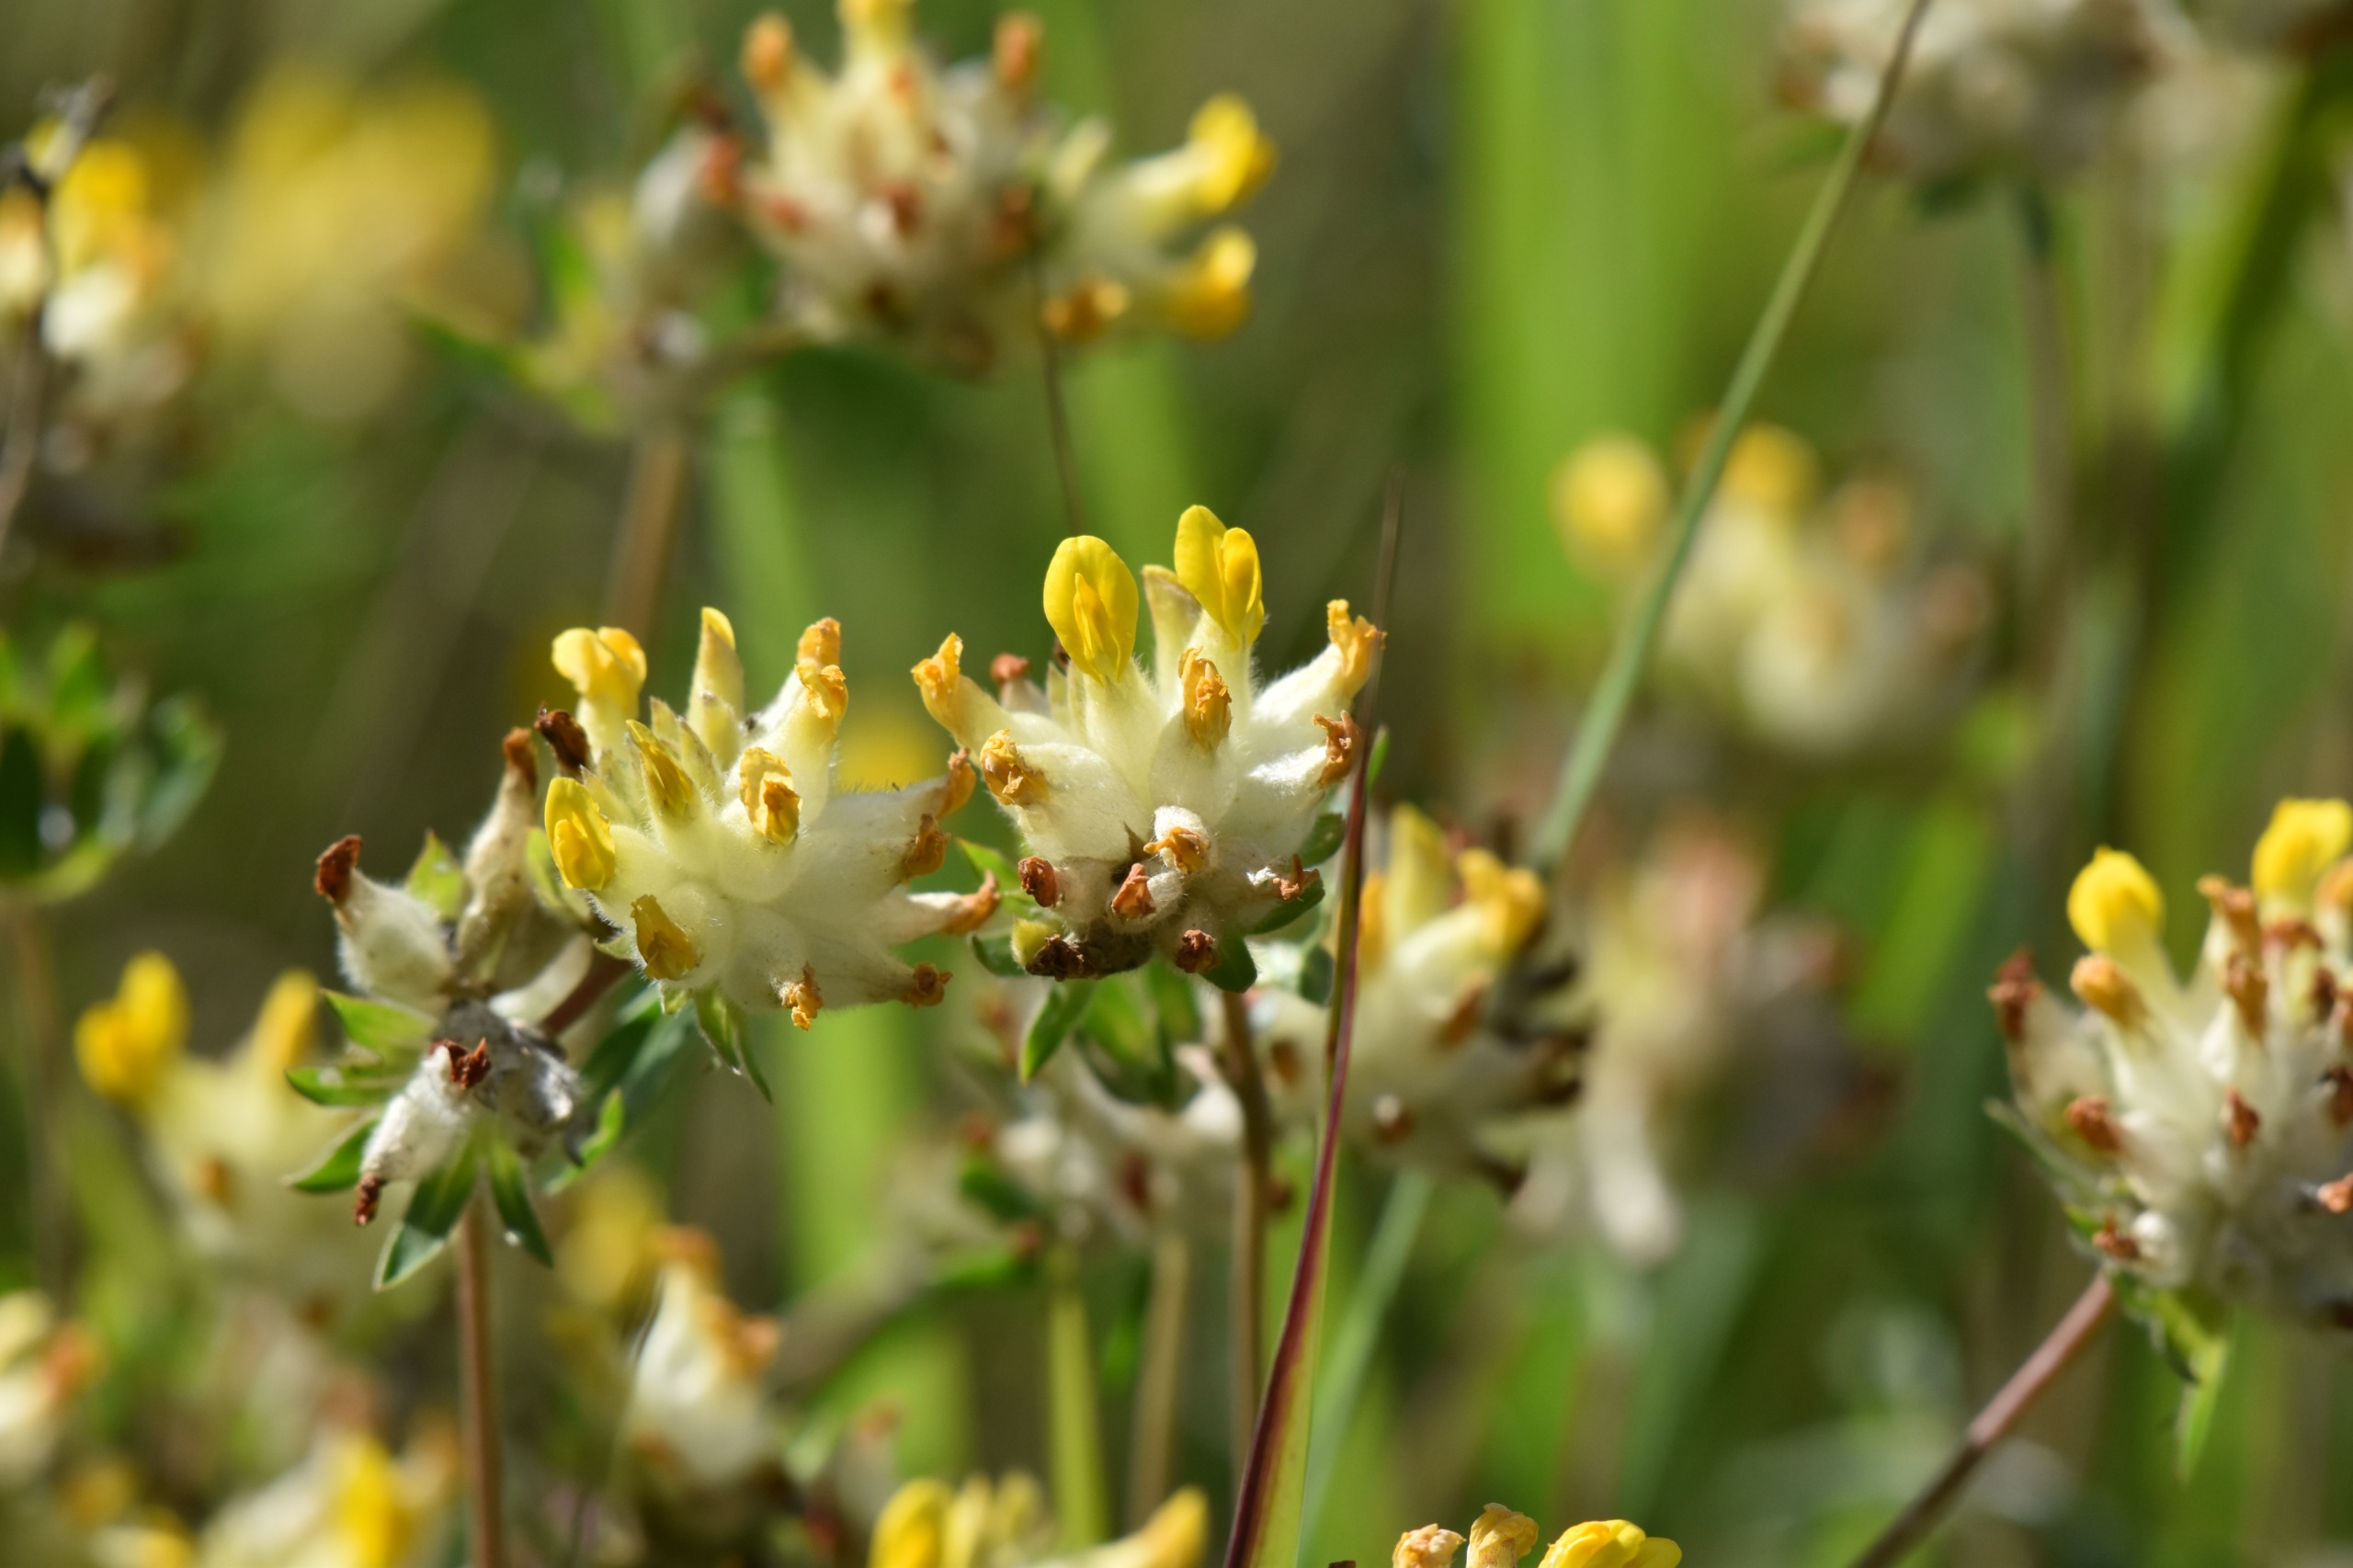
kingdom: Plantae
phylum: Tracheophyta
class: Magnoliopsida
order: Fabales
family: Fabaceae
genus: Anthyllis
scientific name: Anthyllis vulneraria
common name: Rundbælg
